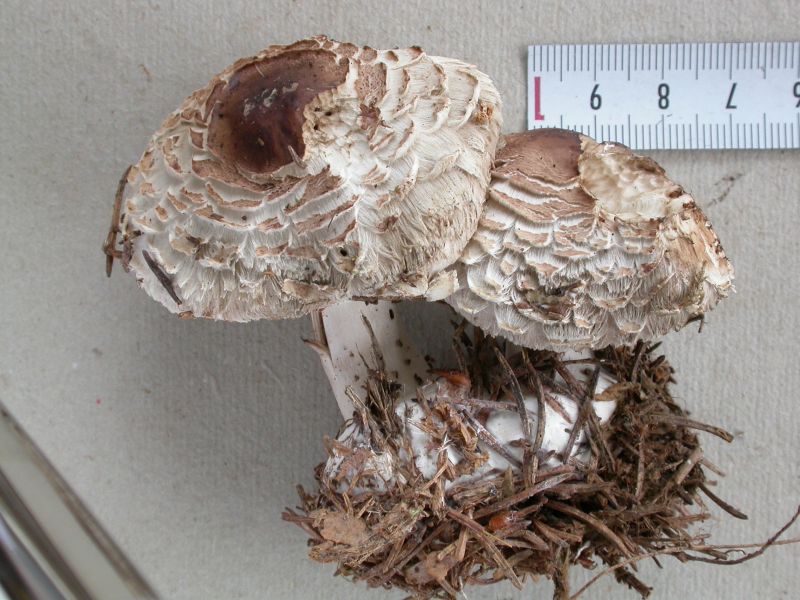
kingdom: Fungi
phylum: Basidiomycota
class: Agaricomycetes
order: Agaricales
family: Agaricaceae
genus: Chlorophyllum
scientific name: Chlorophyllum rhacodes
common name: ægte rabarberhat
